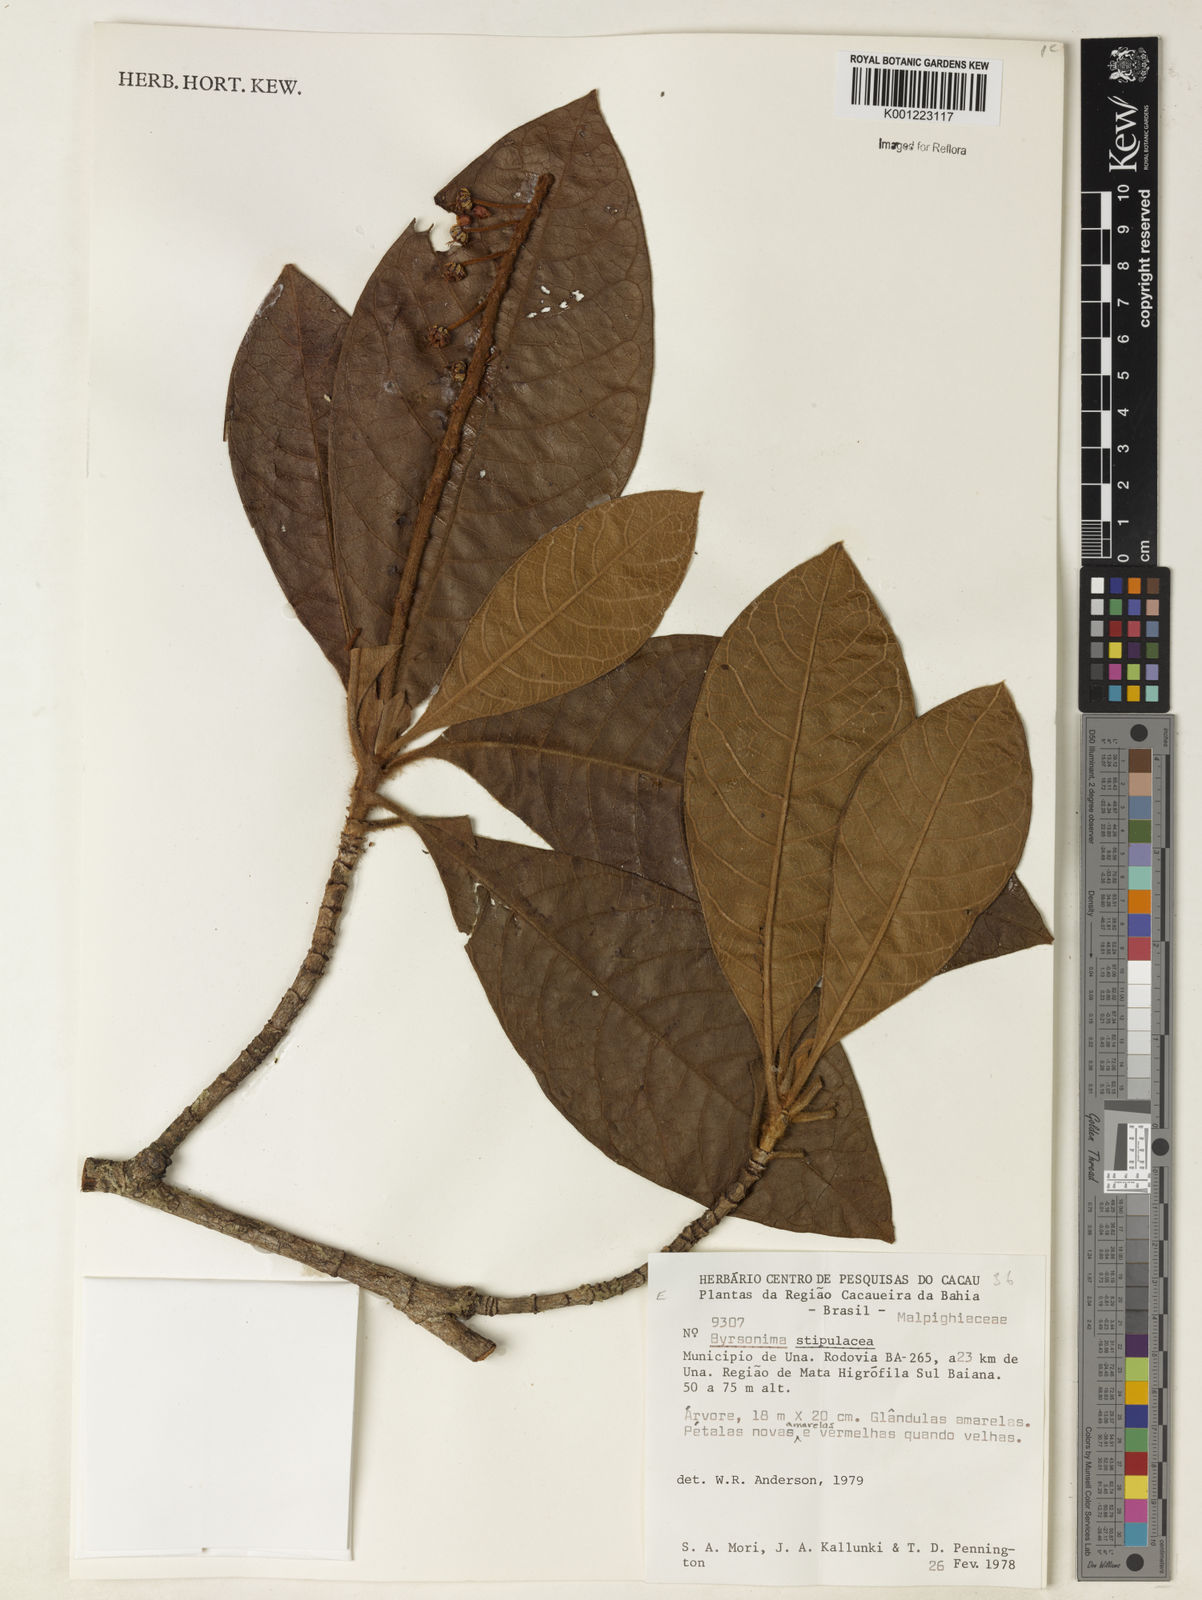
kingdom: Plantae
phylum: Tracheophyta
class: Magnoliopsida
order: Malpighiales
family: Malpighiaceae
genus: Byrsonima
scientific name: Byrsonima stipulacea
